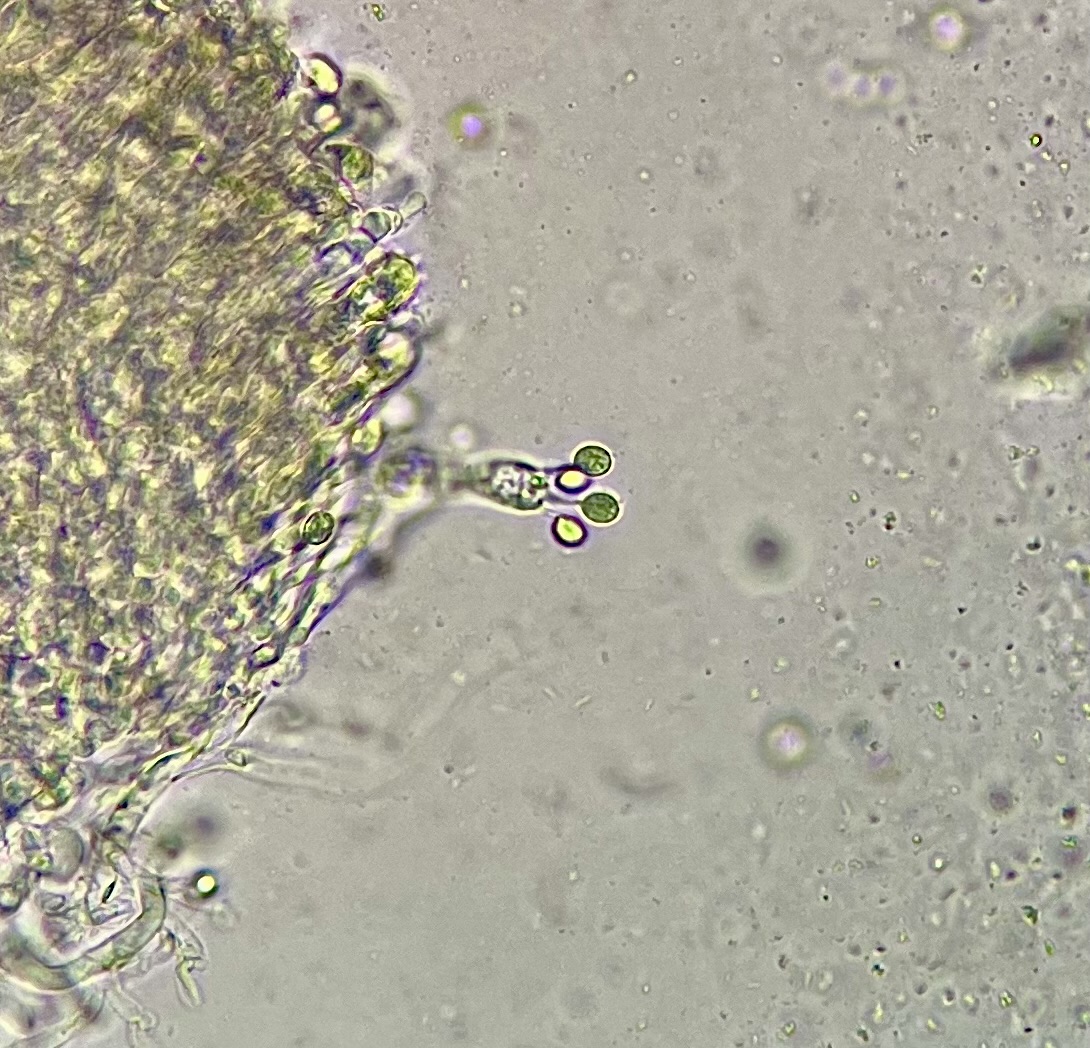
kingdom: Fungi
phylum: Basidiomycota
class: Agaricomycetes
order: Agaricales
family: Hygrophoraceae
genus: Cuphophyllus
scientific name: Cuphophyllus colemannianus
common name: rødbrun vokshat
